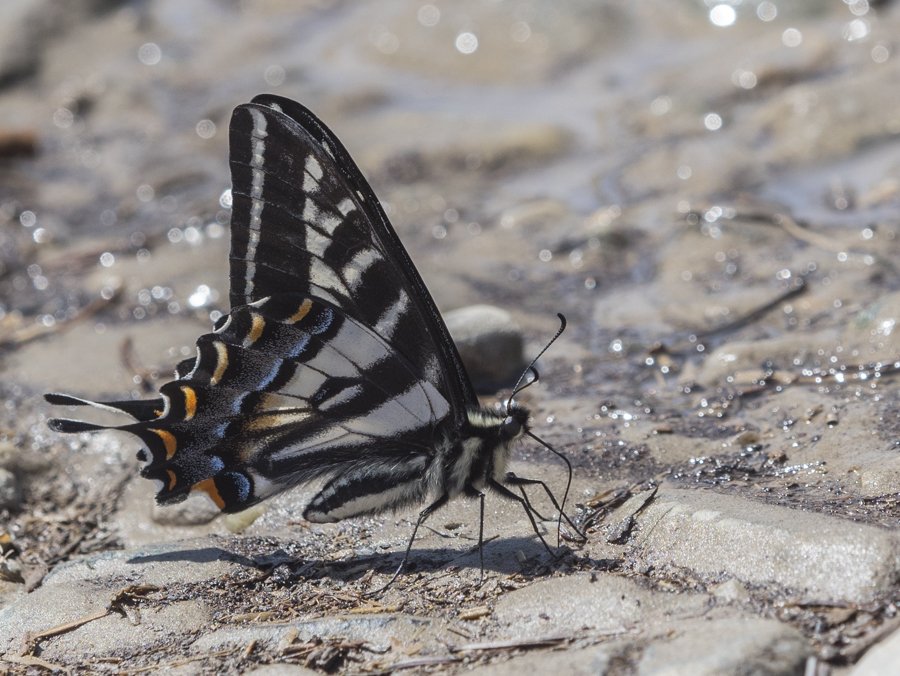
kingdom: Animalia
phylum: Arthropoda
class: Insecta
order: Lepidoptera
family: Papilionidae
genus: Pterourus
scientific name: Pterourus eurymedon
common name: Pale Swallowtail
